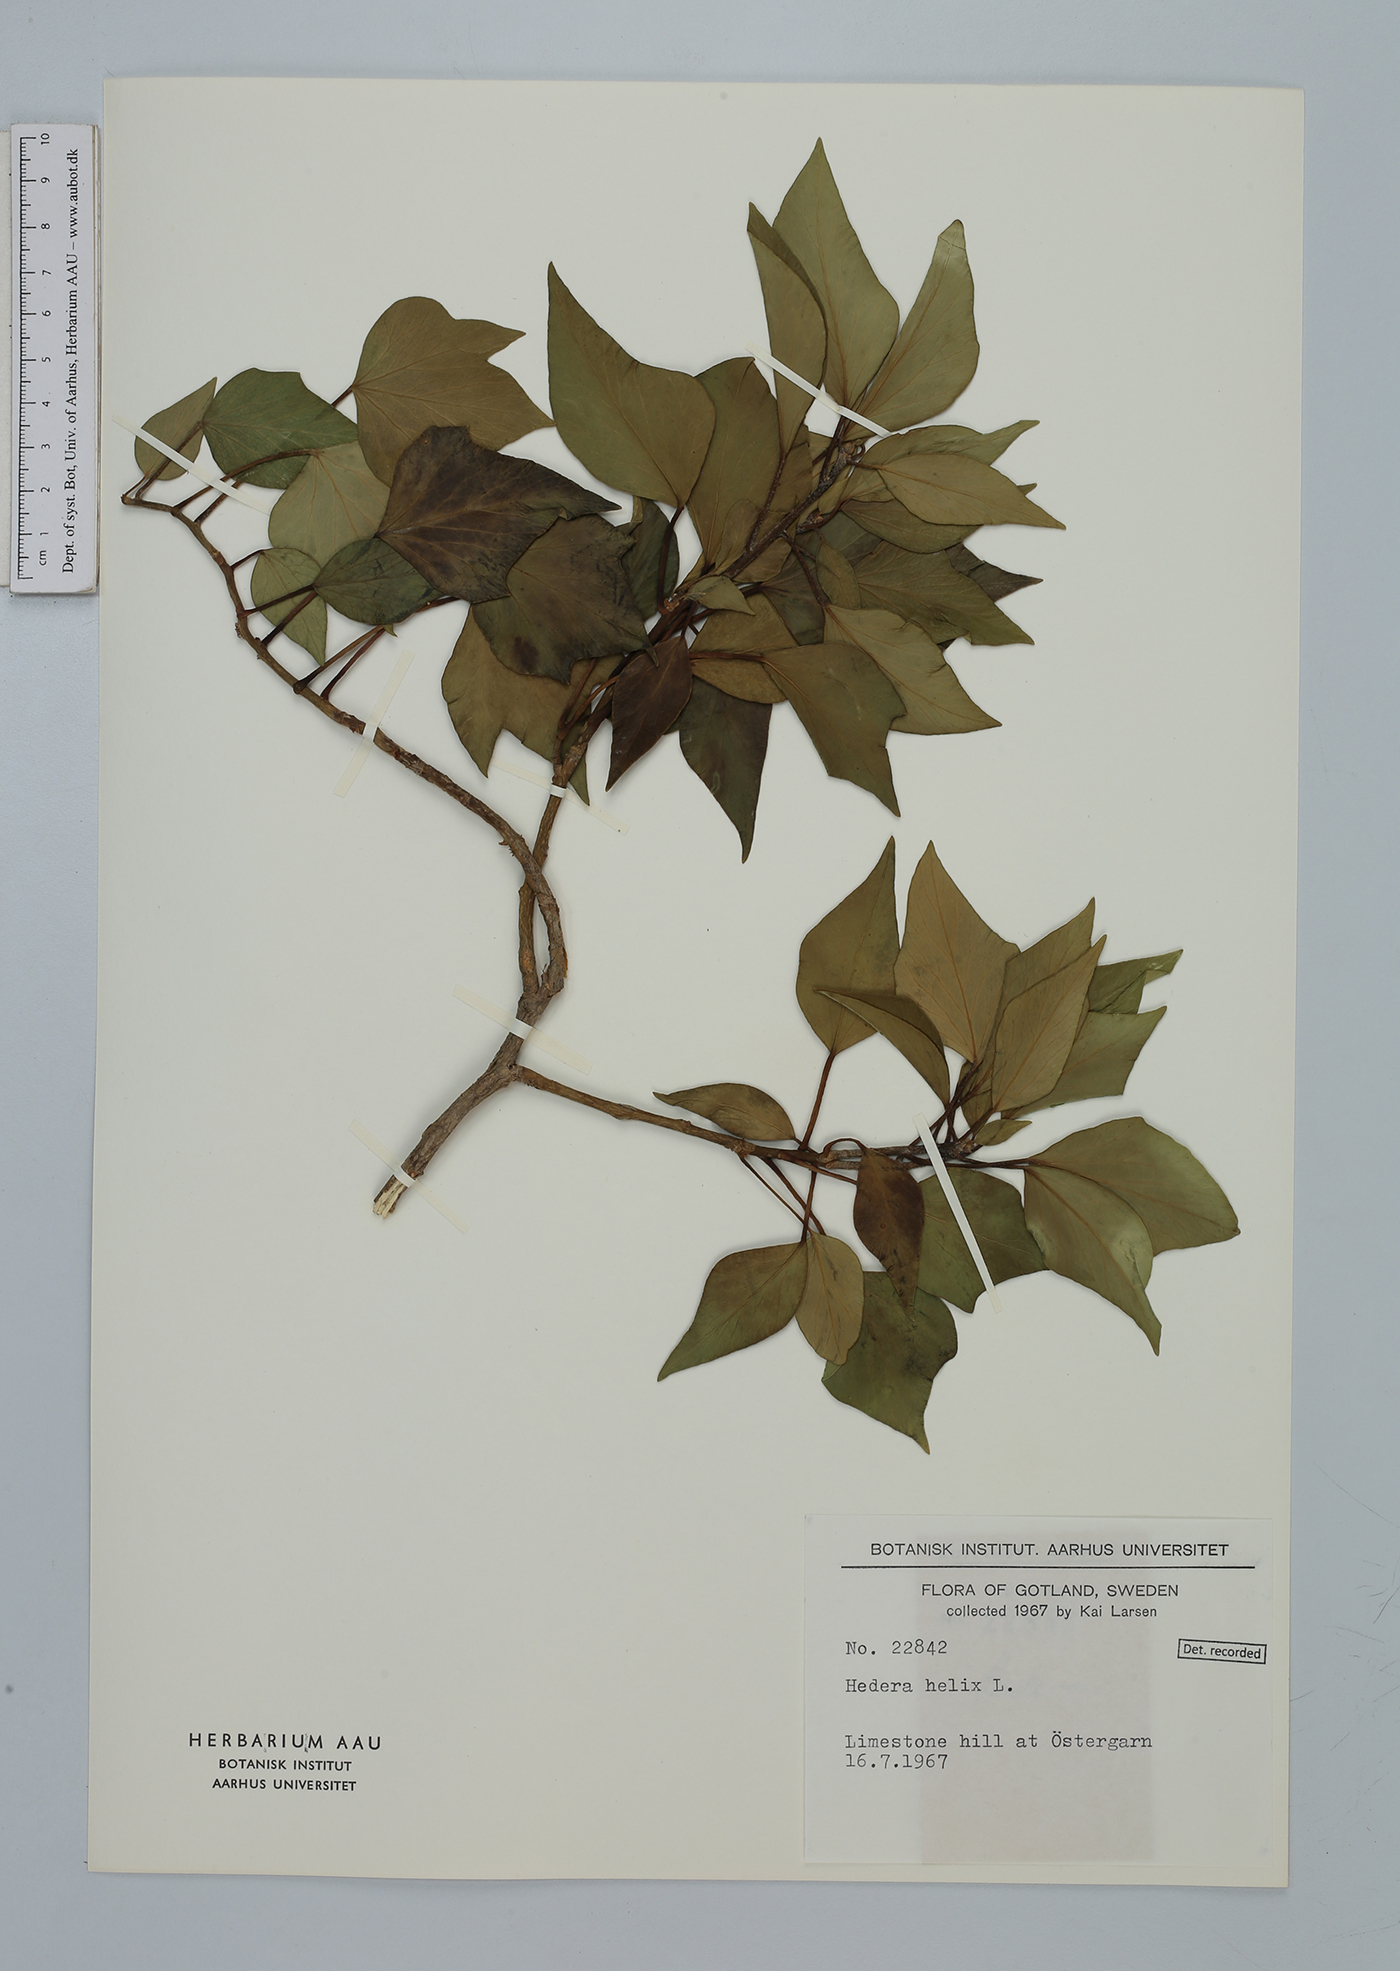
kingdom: Plantae
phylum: Tracheophyta
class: Magnoliopsida
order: Apiales
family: Araliaceae
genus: Hedera
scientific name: Hedera helix
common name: Ivy
